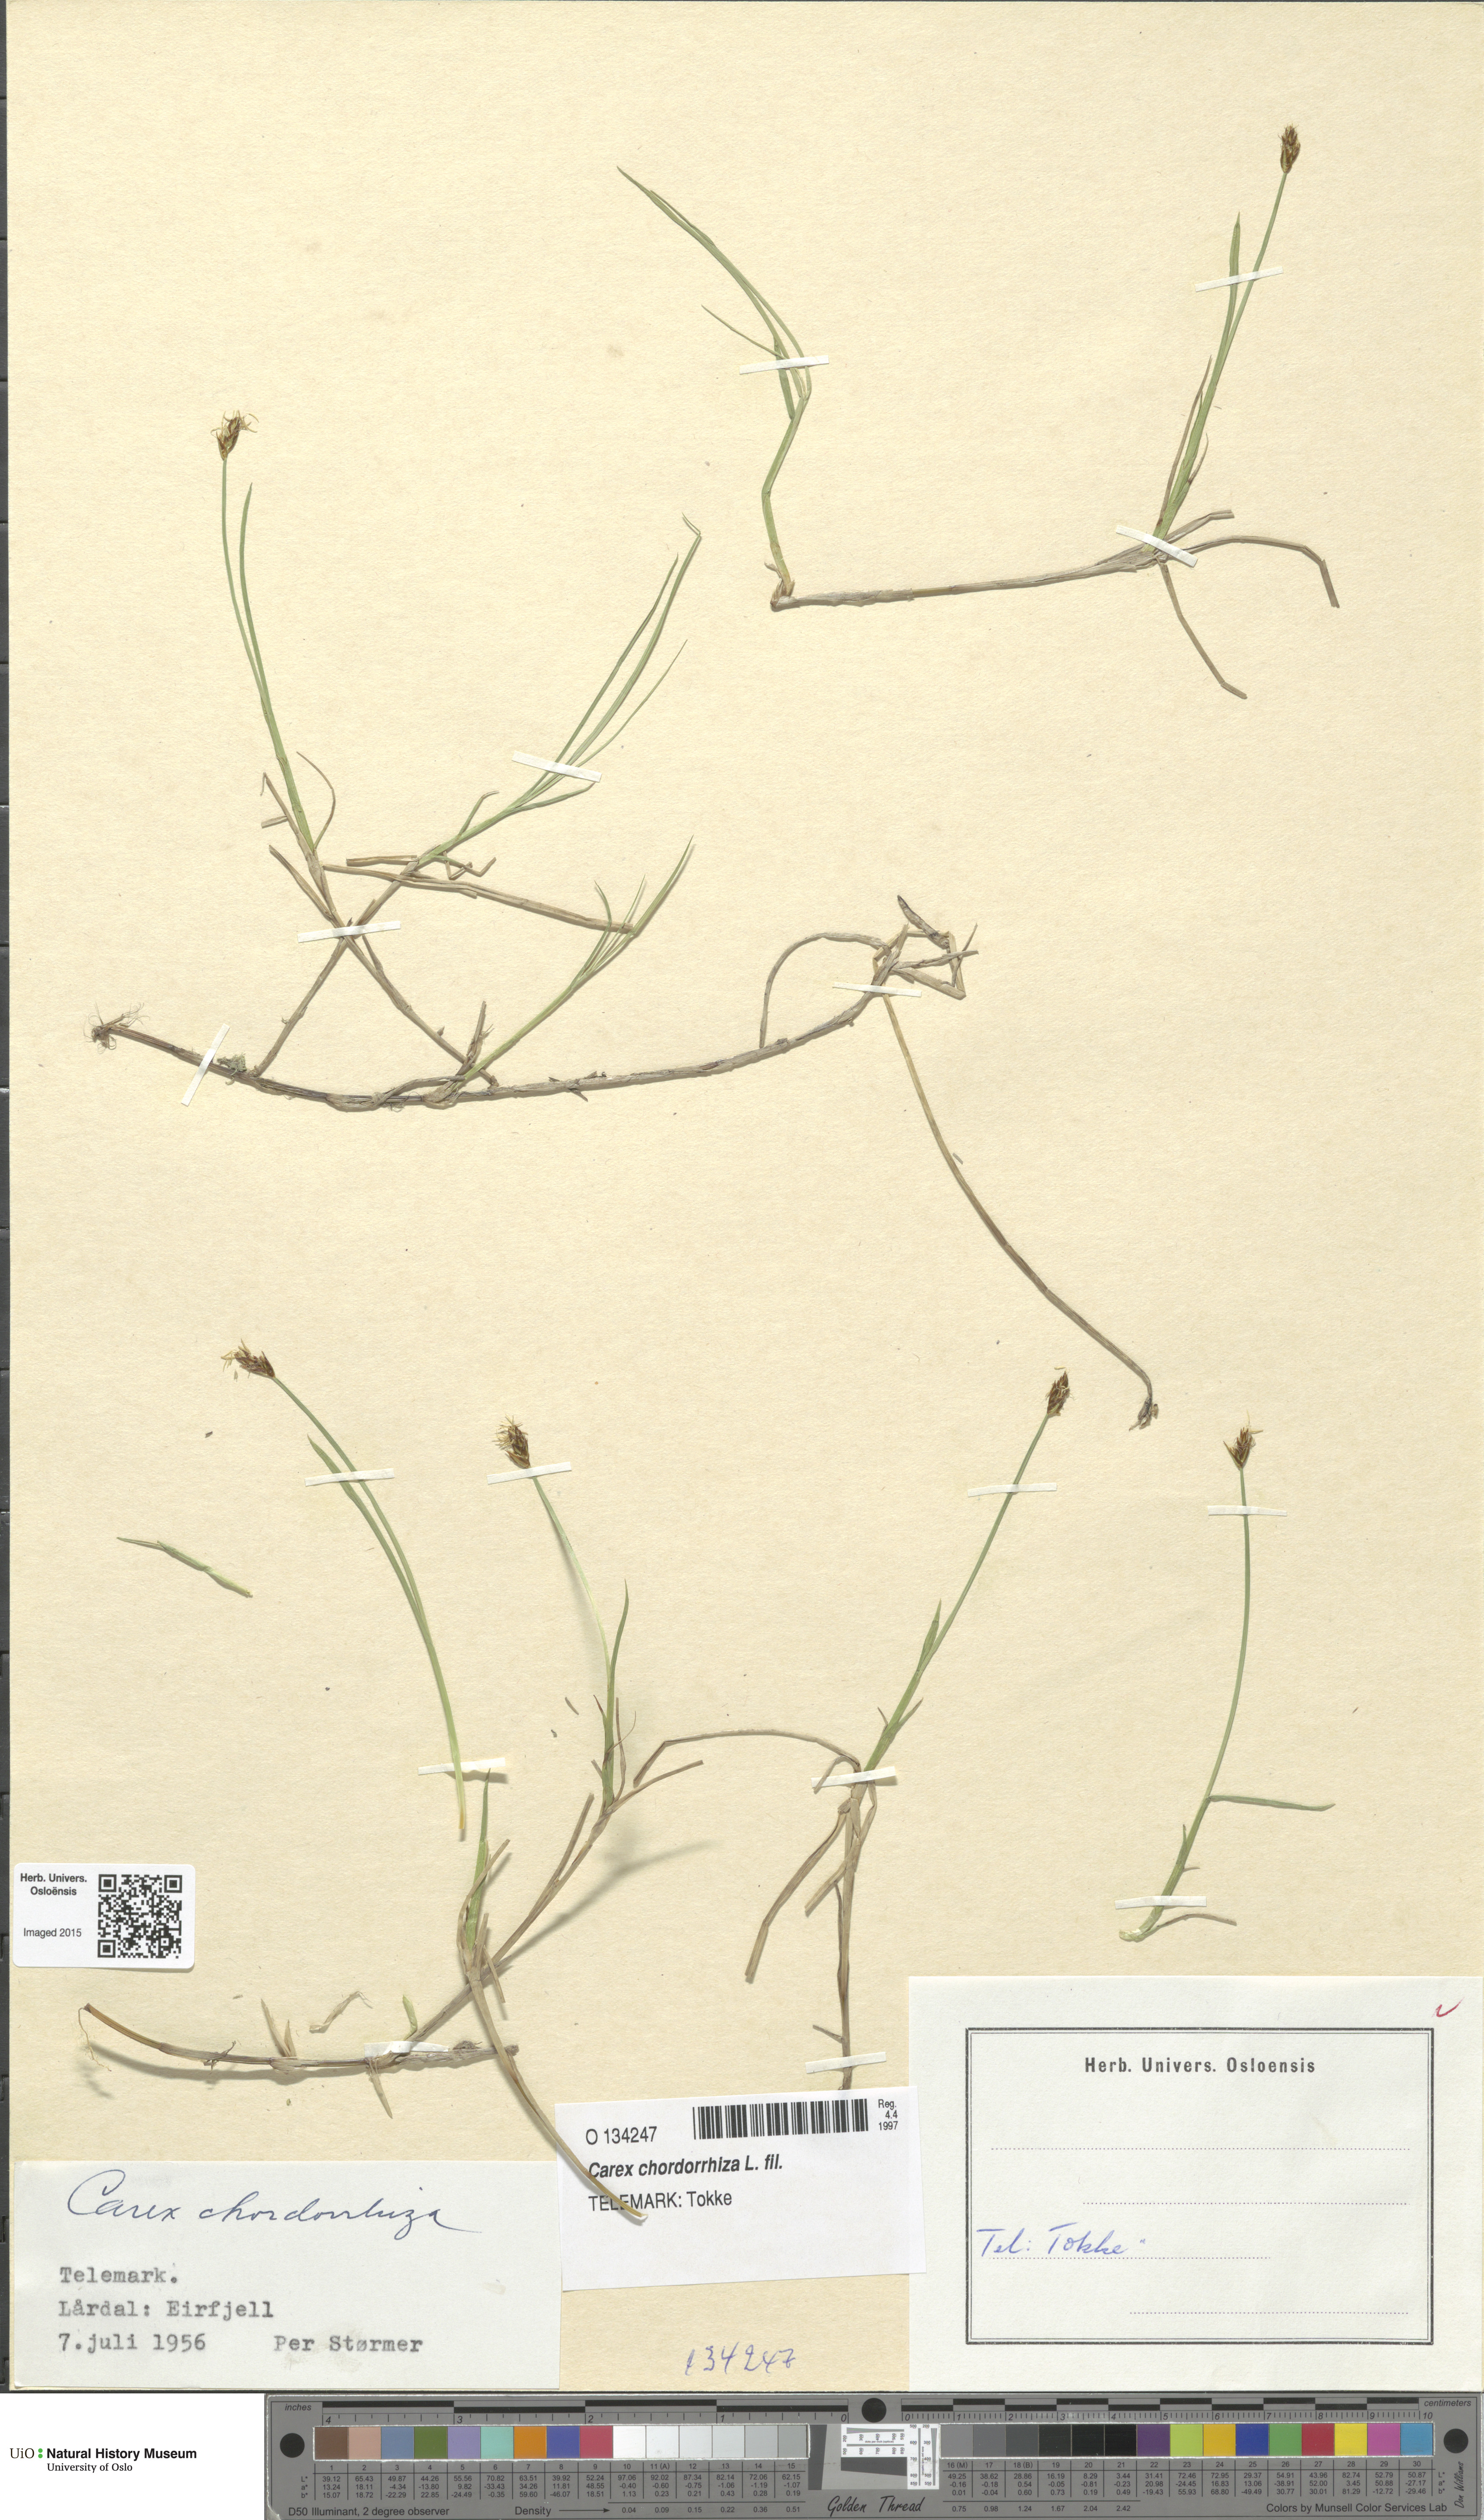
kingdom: Plantae
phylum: Tracheophyta
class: Liliopsida
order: Poales
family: Cyperaceae
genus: Carex
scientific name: Carex chordorrhiza
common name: String sedge
